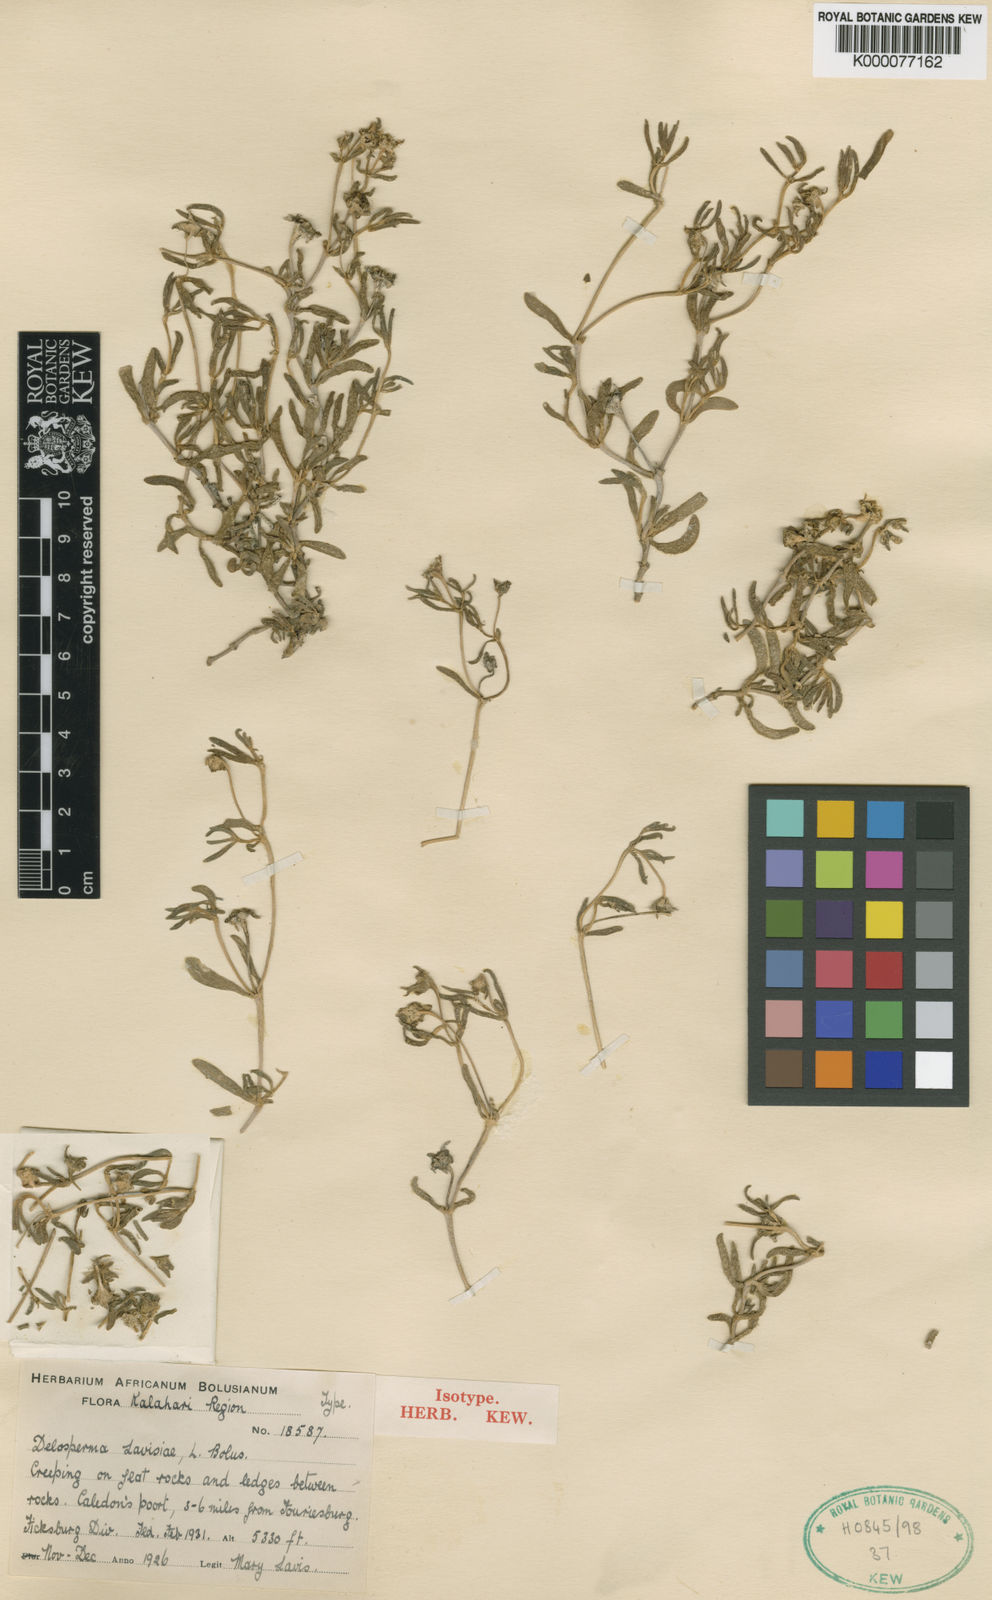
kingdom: Plantae
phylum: Tracheophyta
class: Magnoliopsida
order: Caryophyllales
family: Aizoaceae
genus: Delosperma
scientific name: Delosperma lavisiae
